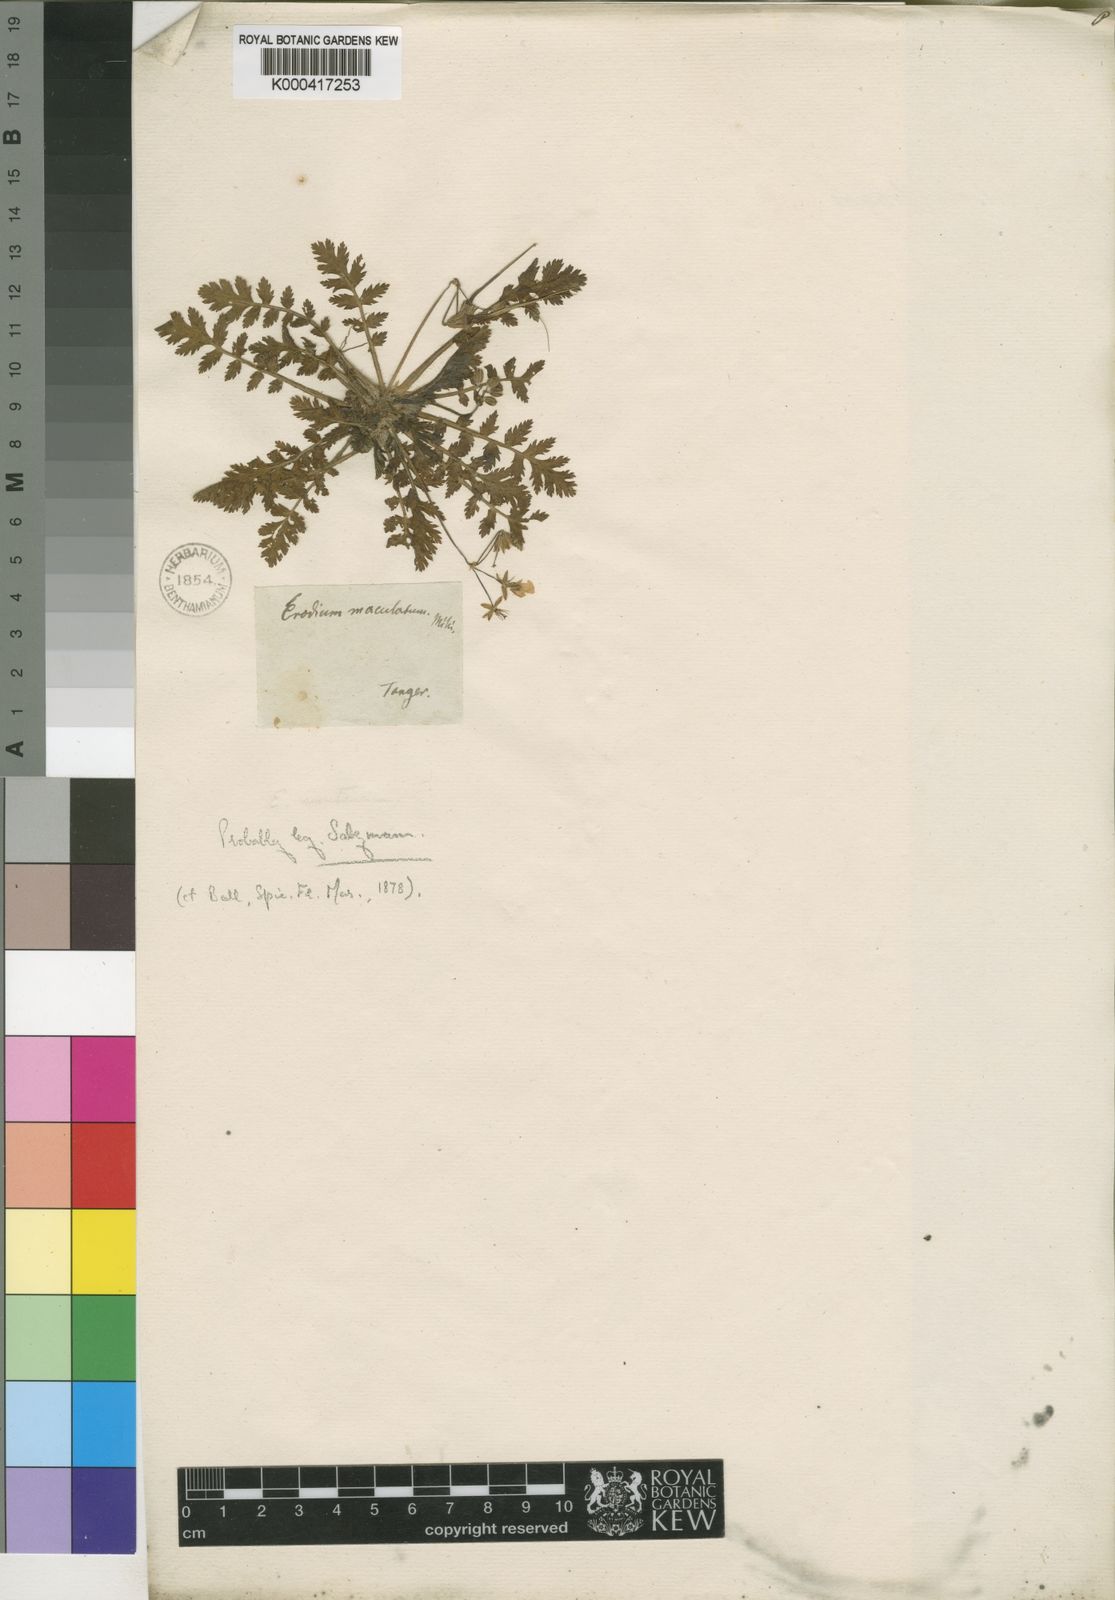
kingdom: Plantae
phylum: Tracheophyta
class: Magnoliopsida
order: Geraniales
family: Geraniaceae
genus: Erodium
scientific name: Erodium
